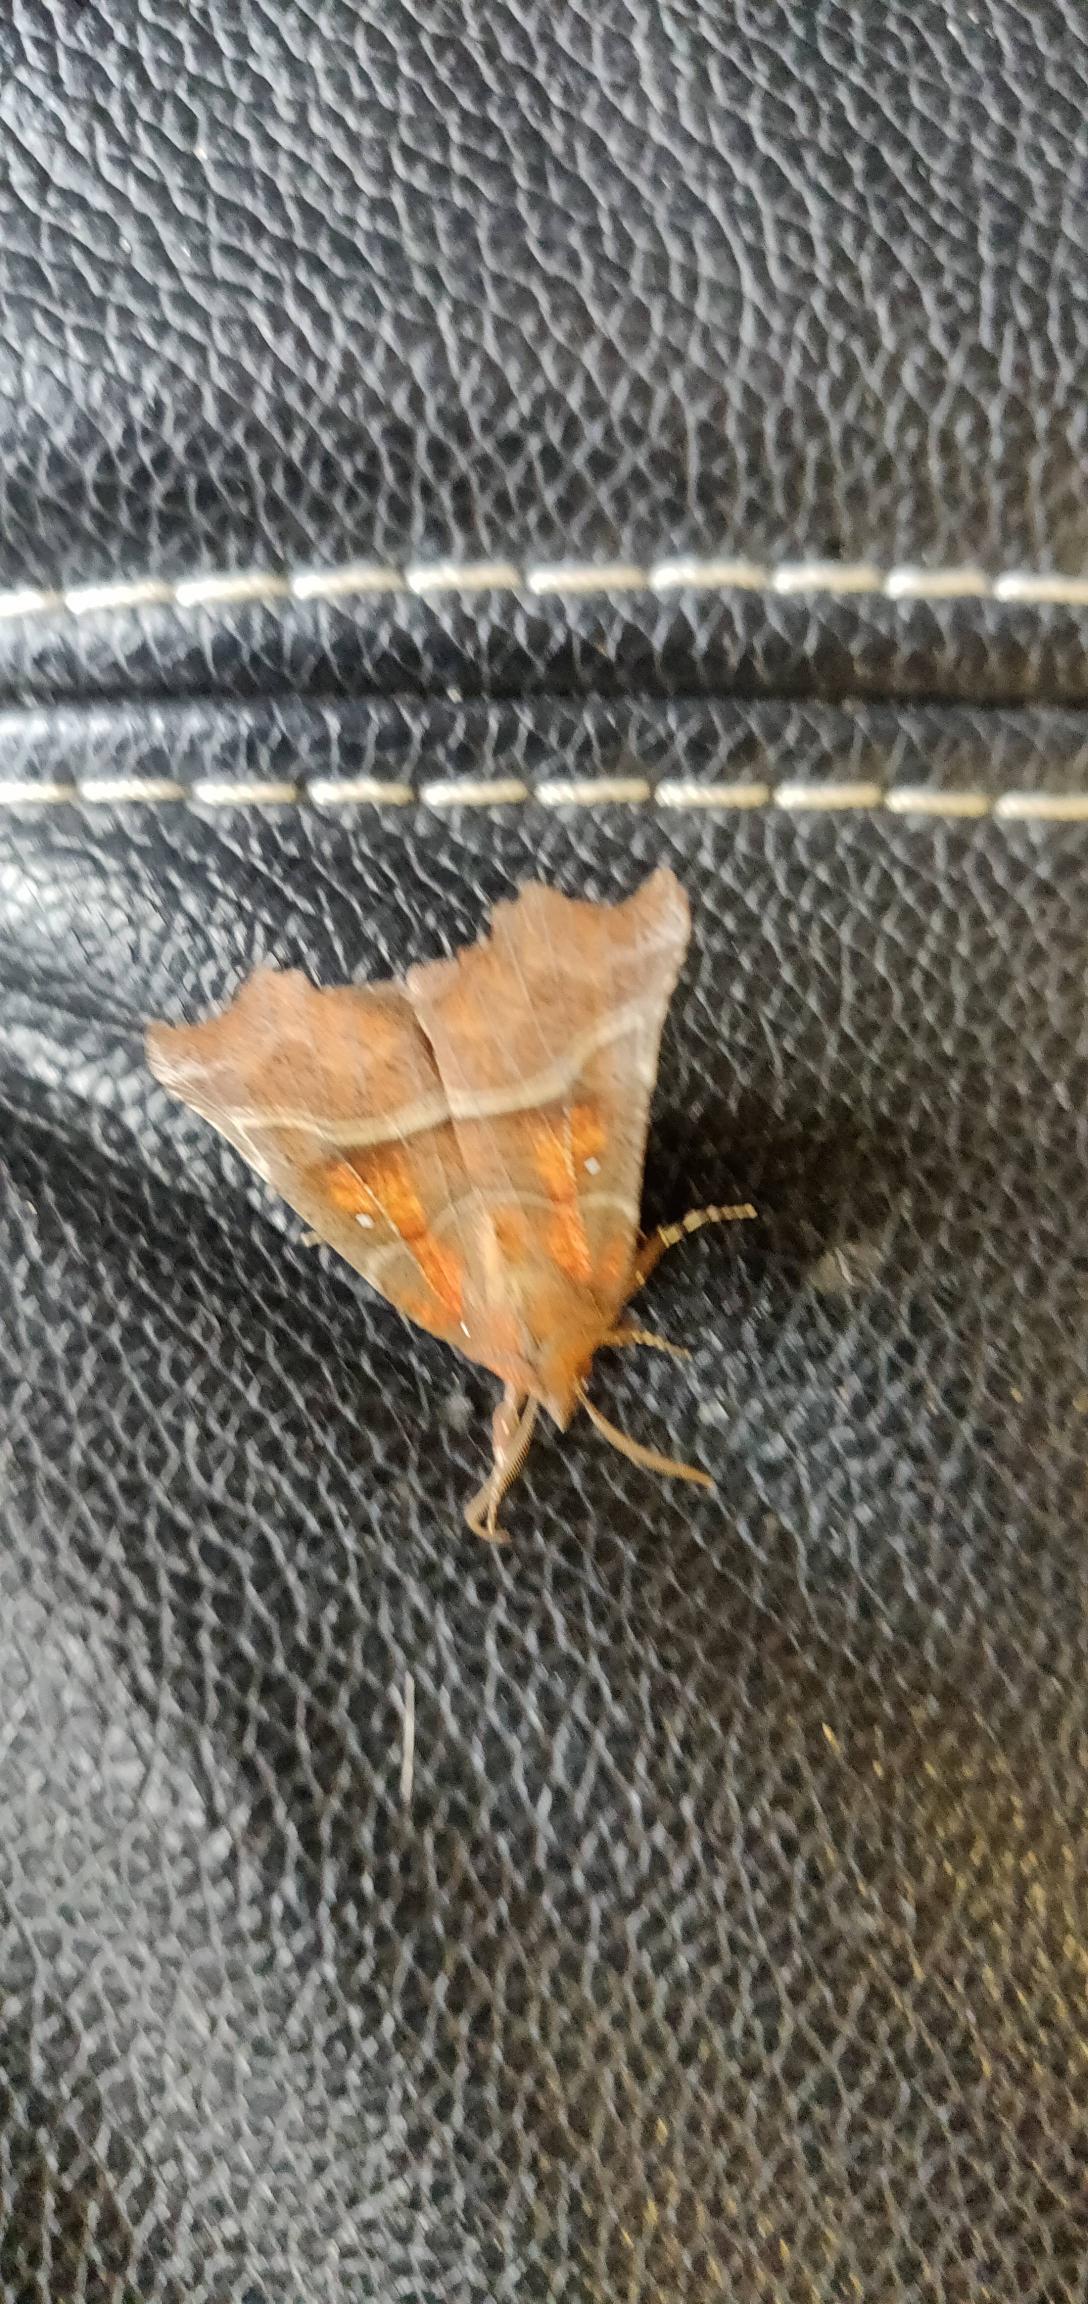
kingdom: Animalia
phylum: Arthropoda
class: Insecta
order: Lepidoptera
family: Erebidae
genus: Scoliopteryx
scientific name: Scoliopteryx libatrix
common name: Husmoderugle
